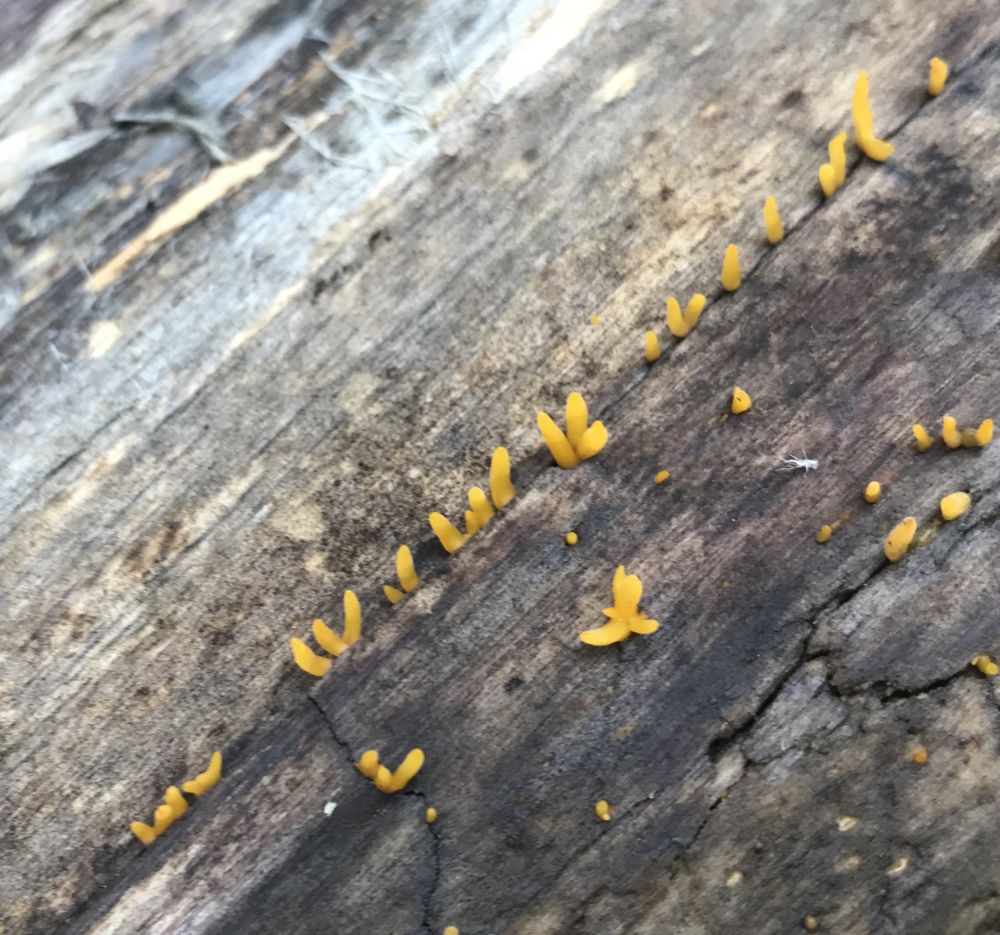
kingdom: Fungi
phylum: Basidiomycota
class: Dacrymycetes
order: Dacrymycetales
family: Dacrymycetaceae
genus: Calocera
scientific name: Calocera cornea
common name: liden guldgaffel
